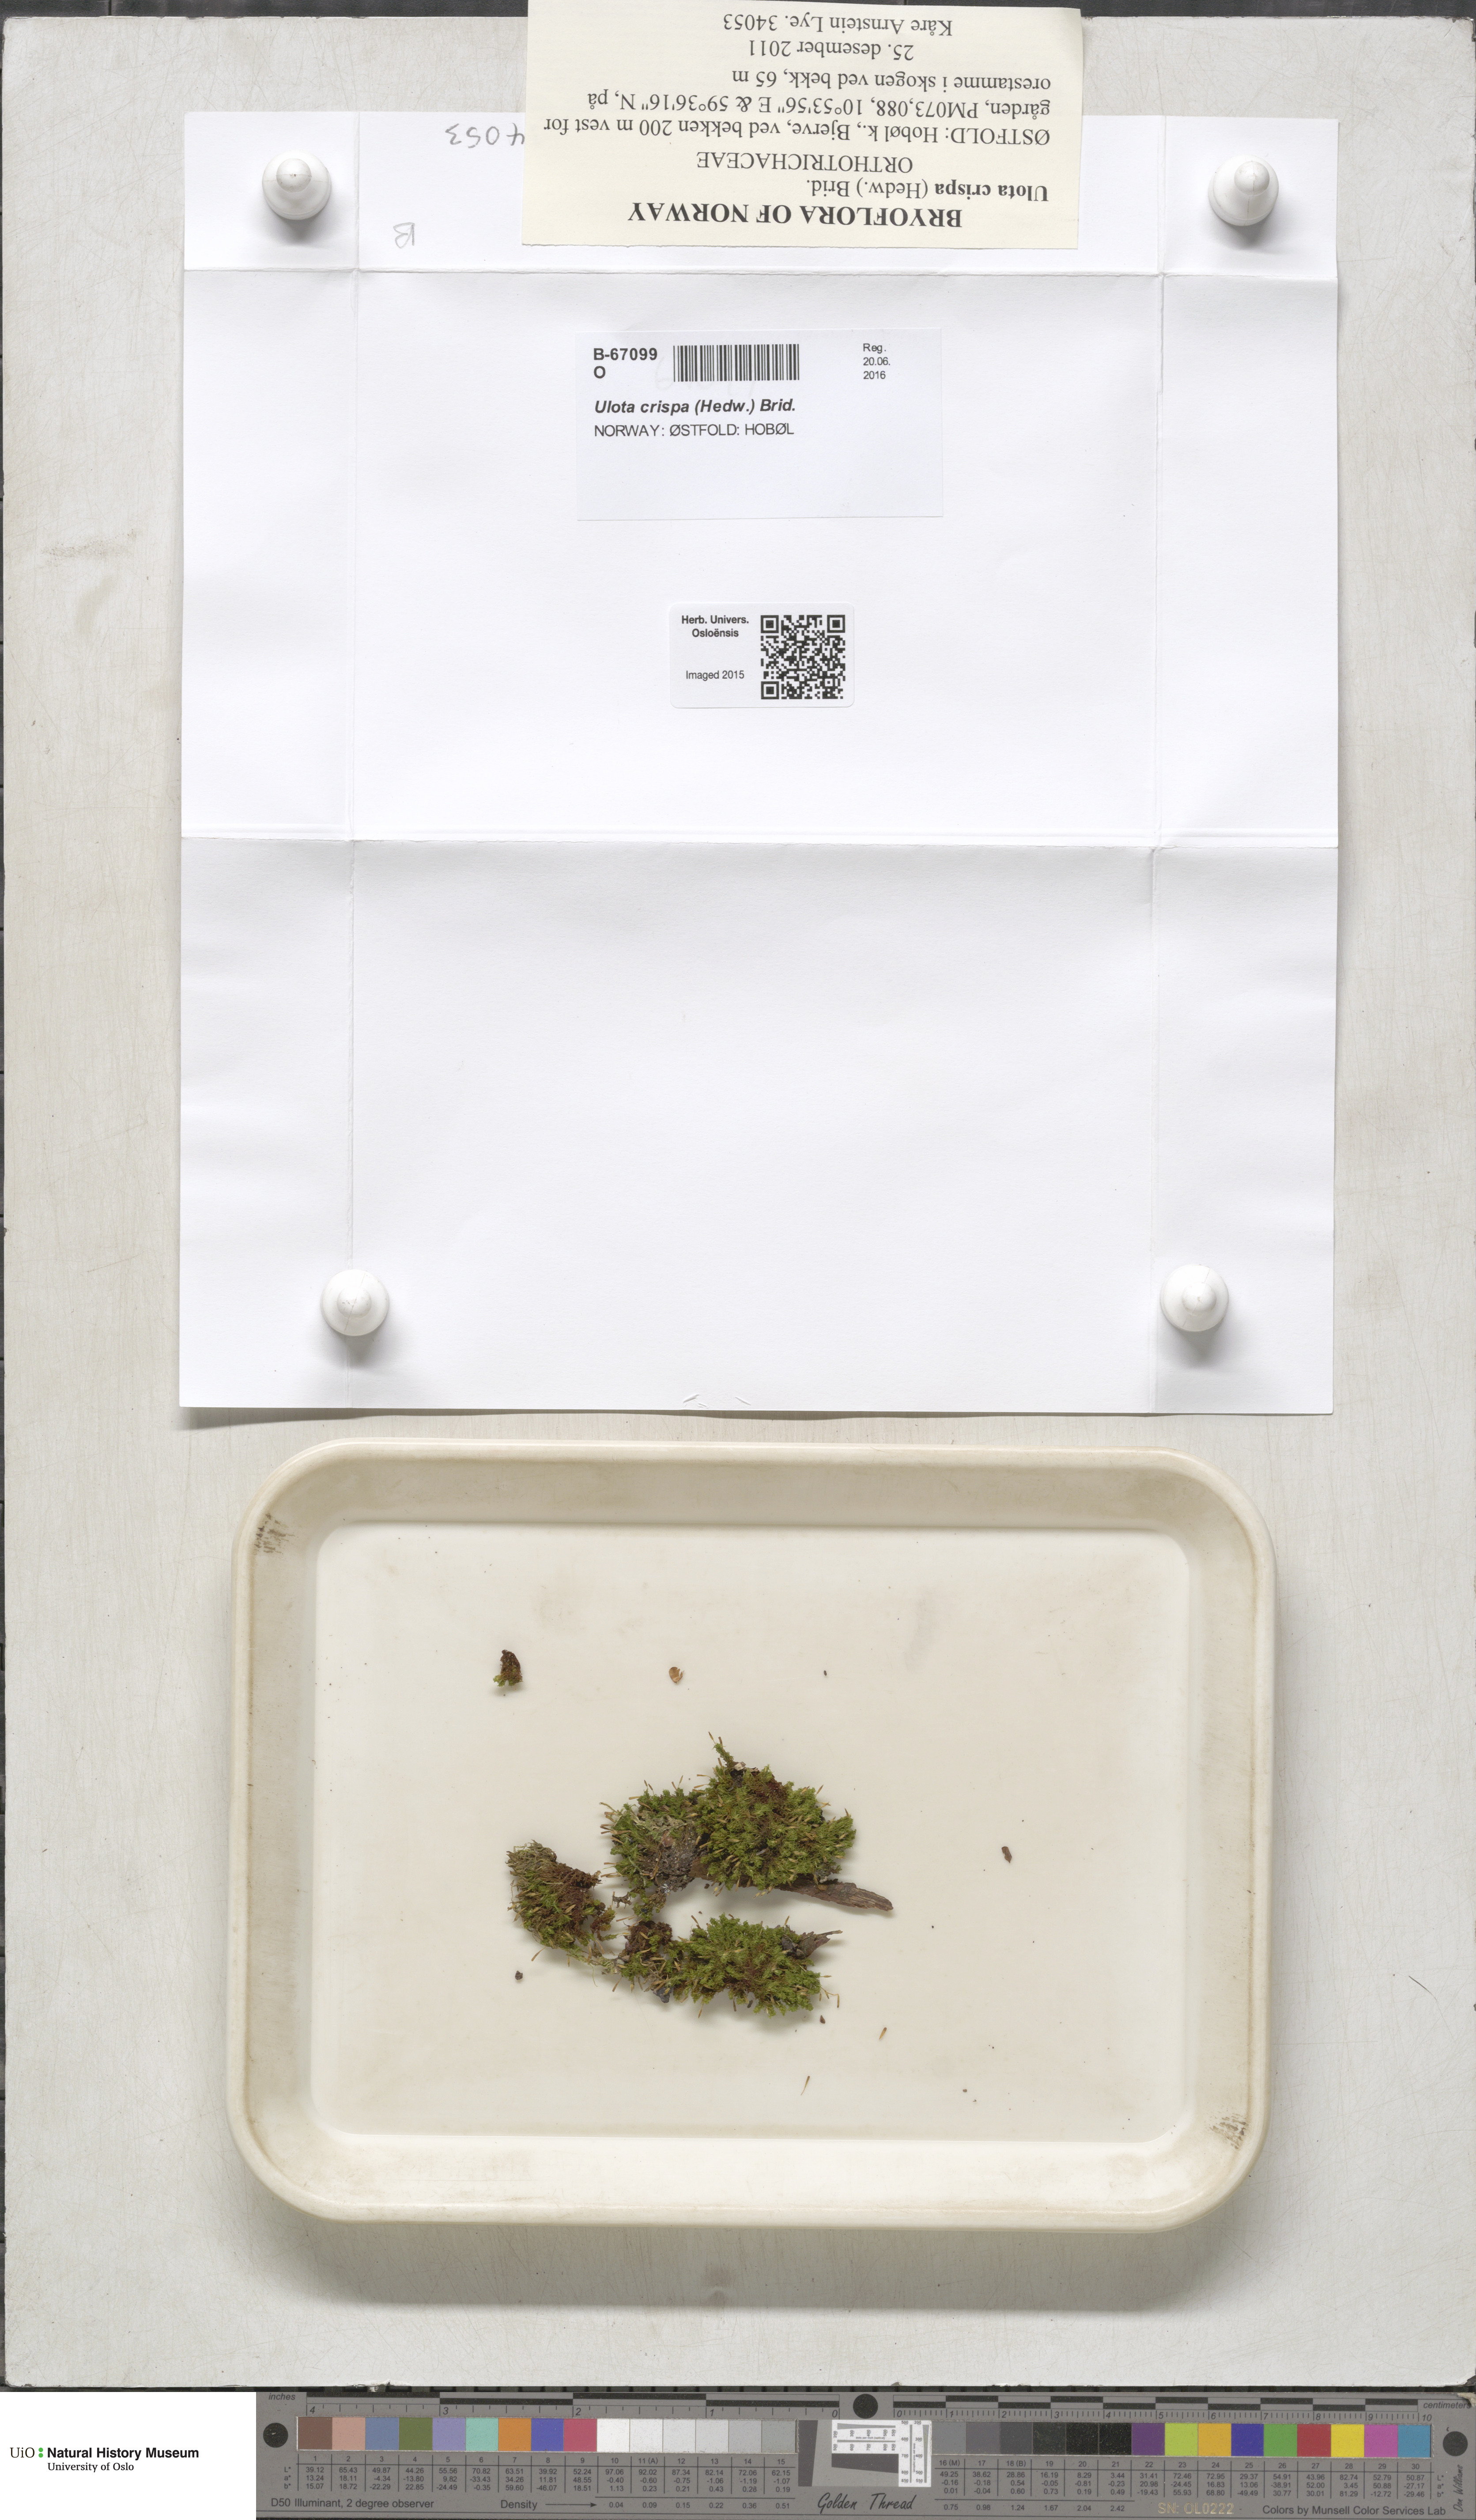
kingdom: Plantae
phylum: Bryophyta
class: Bryopsida
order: Orthotrichales
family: Orthotrichaceae
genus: Ulota
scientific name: Ulota crispa
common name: Crisped pincushion moss
